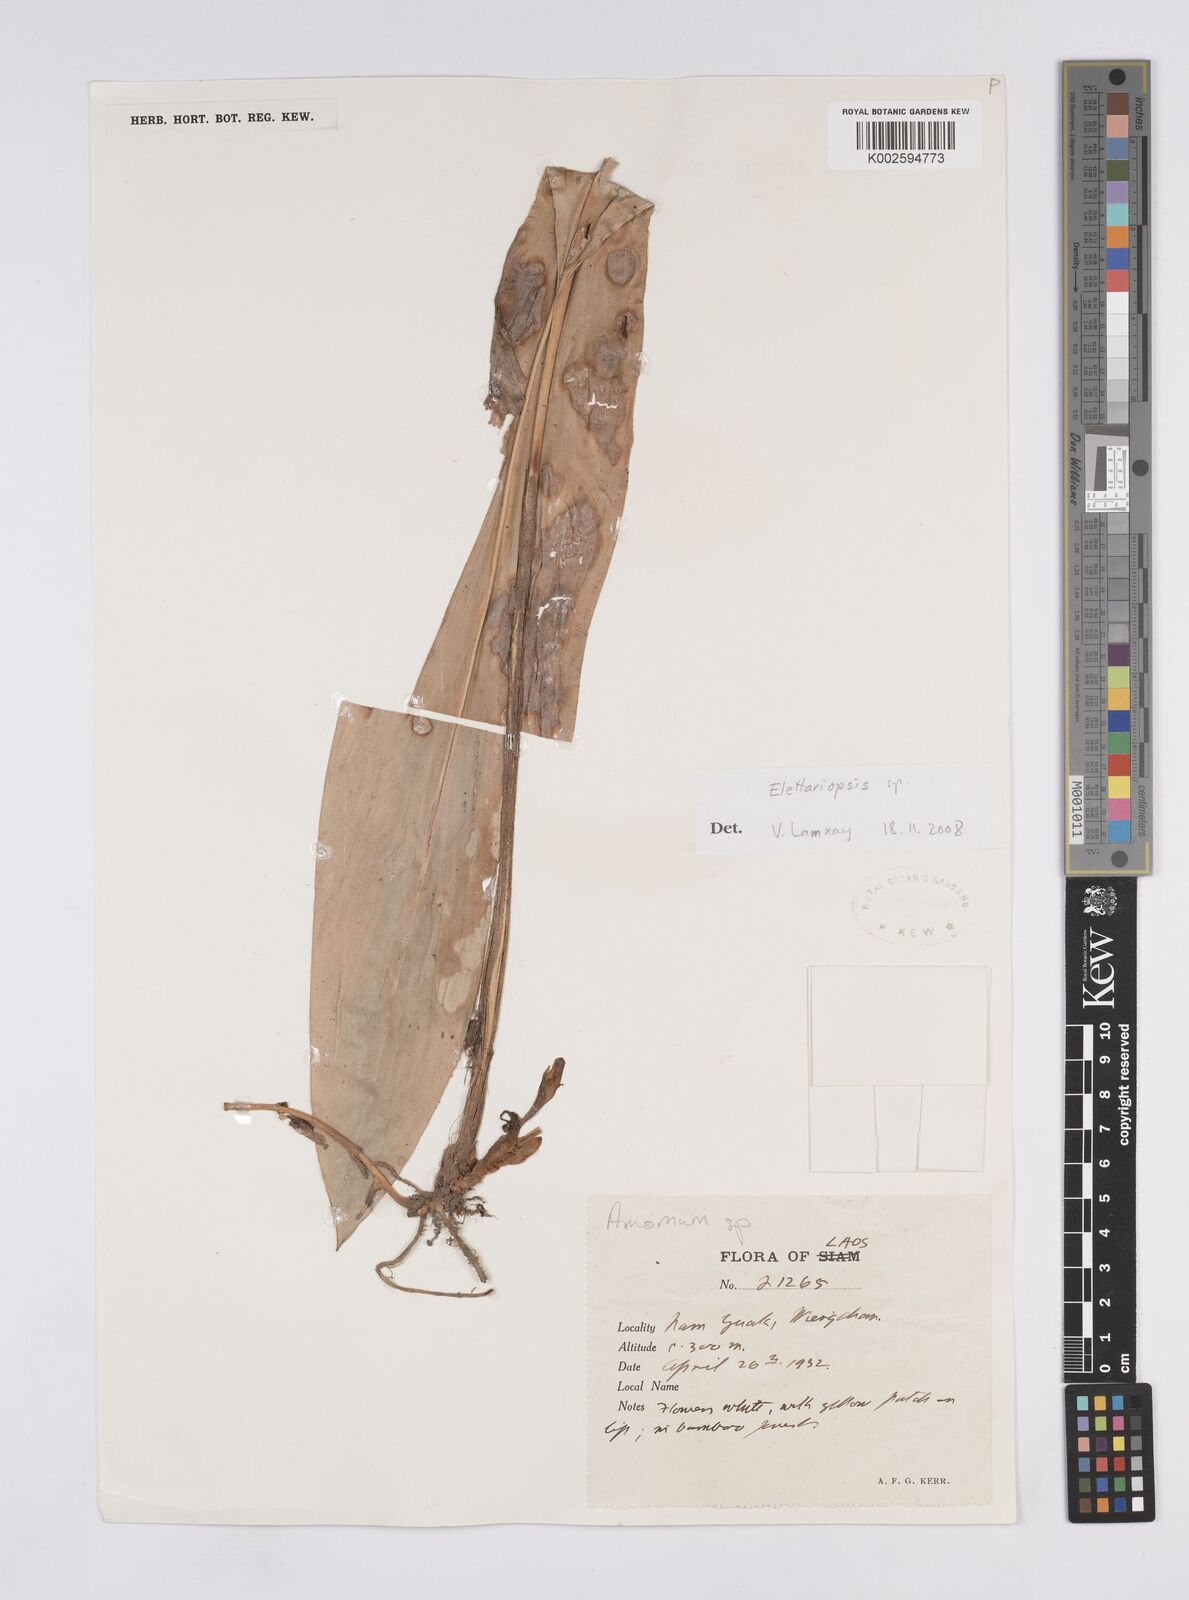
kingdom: Plantae
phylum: Tracheophyta
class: Liliopsida
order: Zingiberales
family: Zingiberaceae
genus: Amomum
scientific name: Amomum
